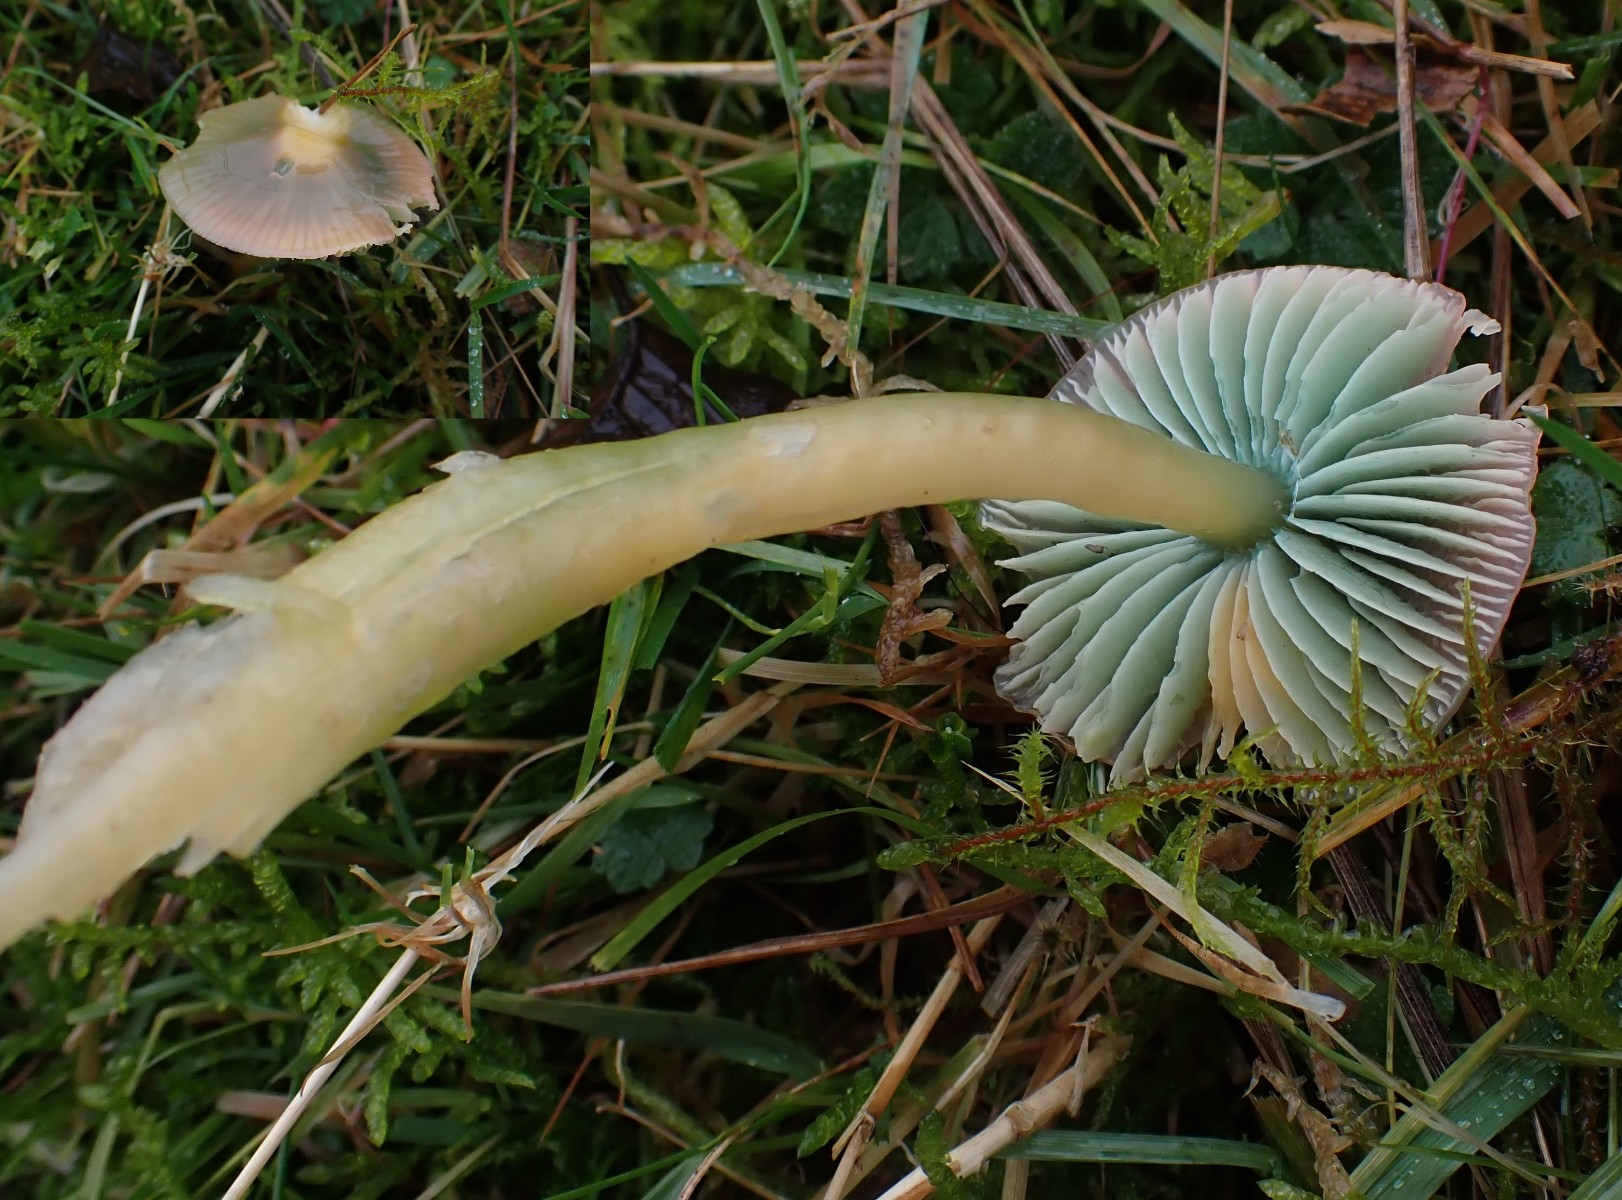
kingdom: Fungi
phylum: Basidiomycota
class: Agaricomycetes
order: Agaricales
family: Hygrophoraceae
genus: Gliophorus
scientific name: Gliophorus psittacinus
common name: papegøje-vokshat
